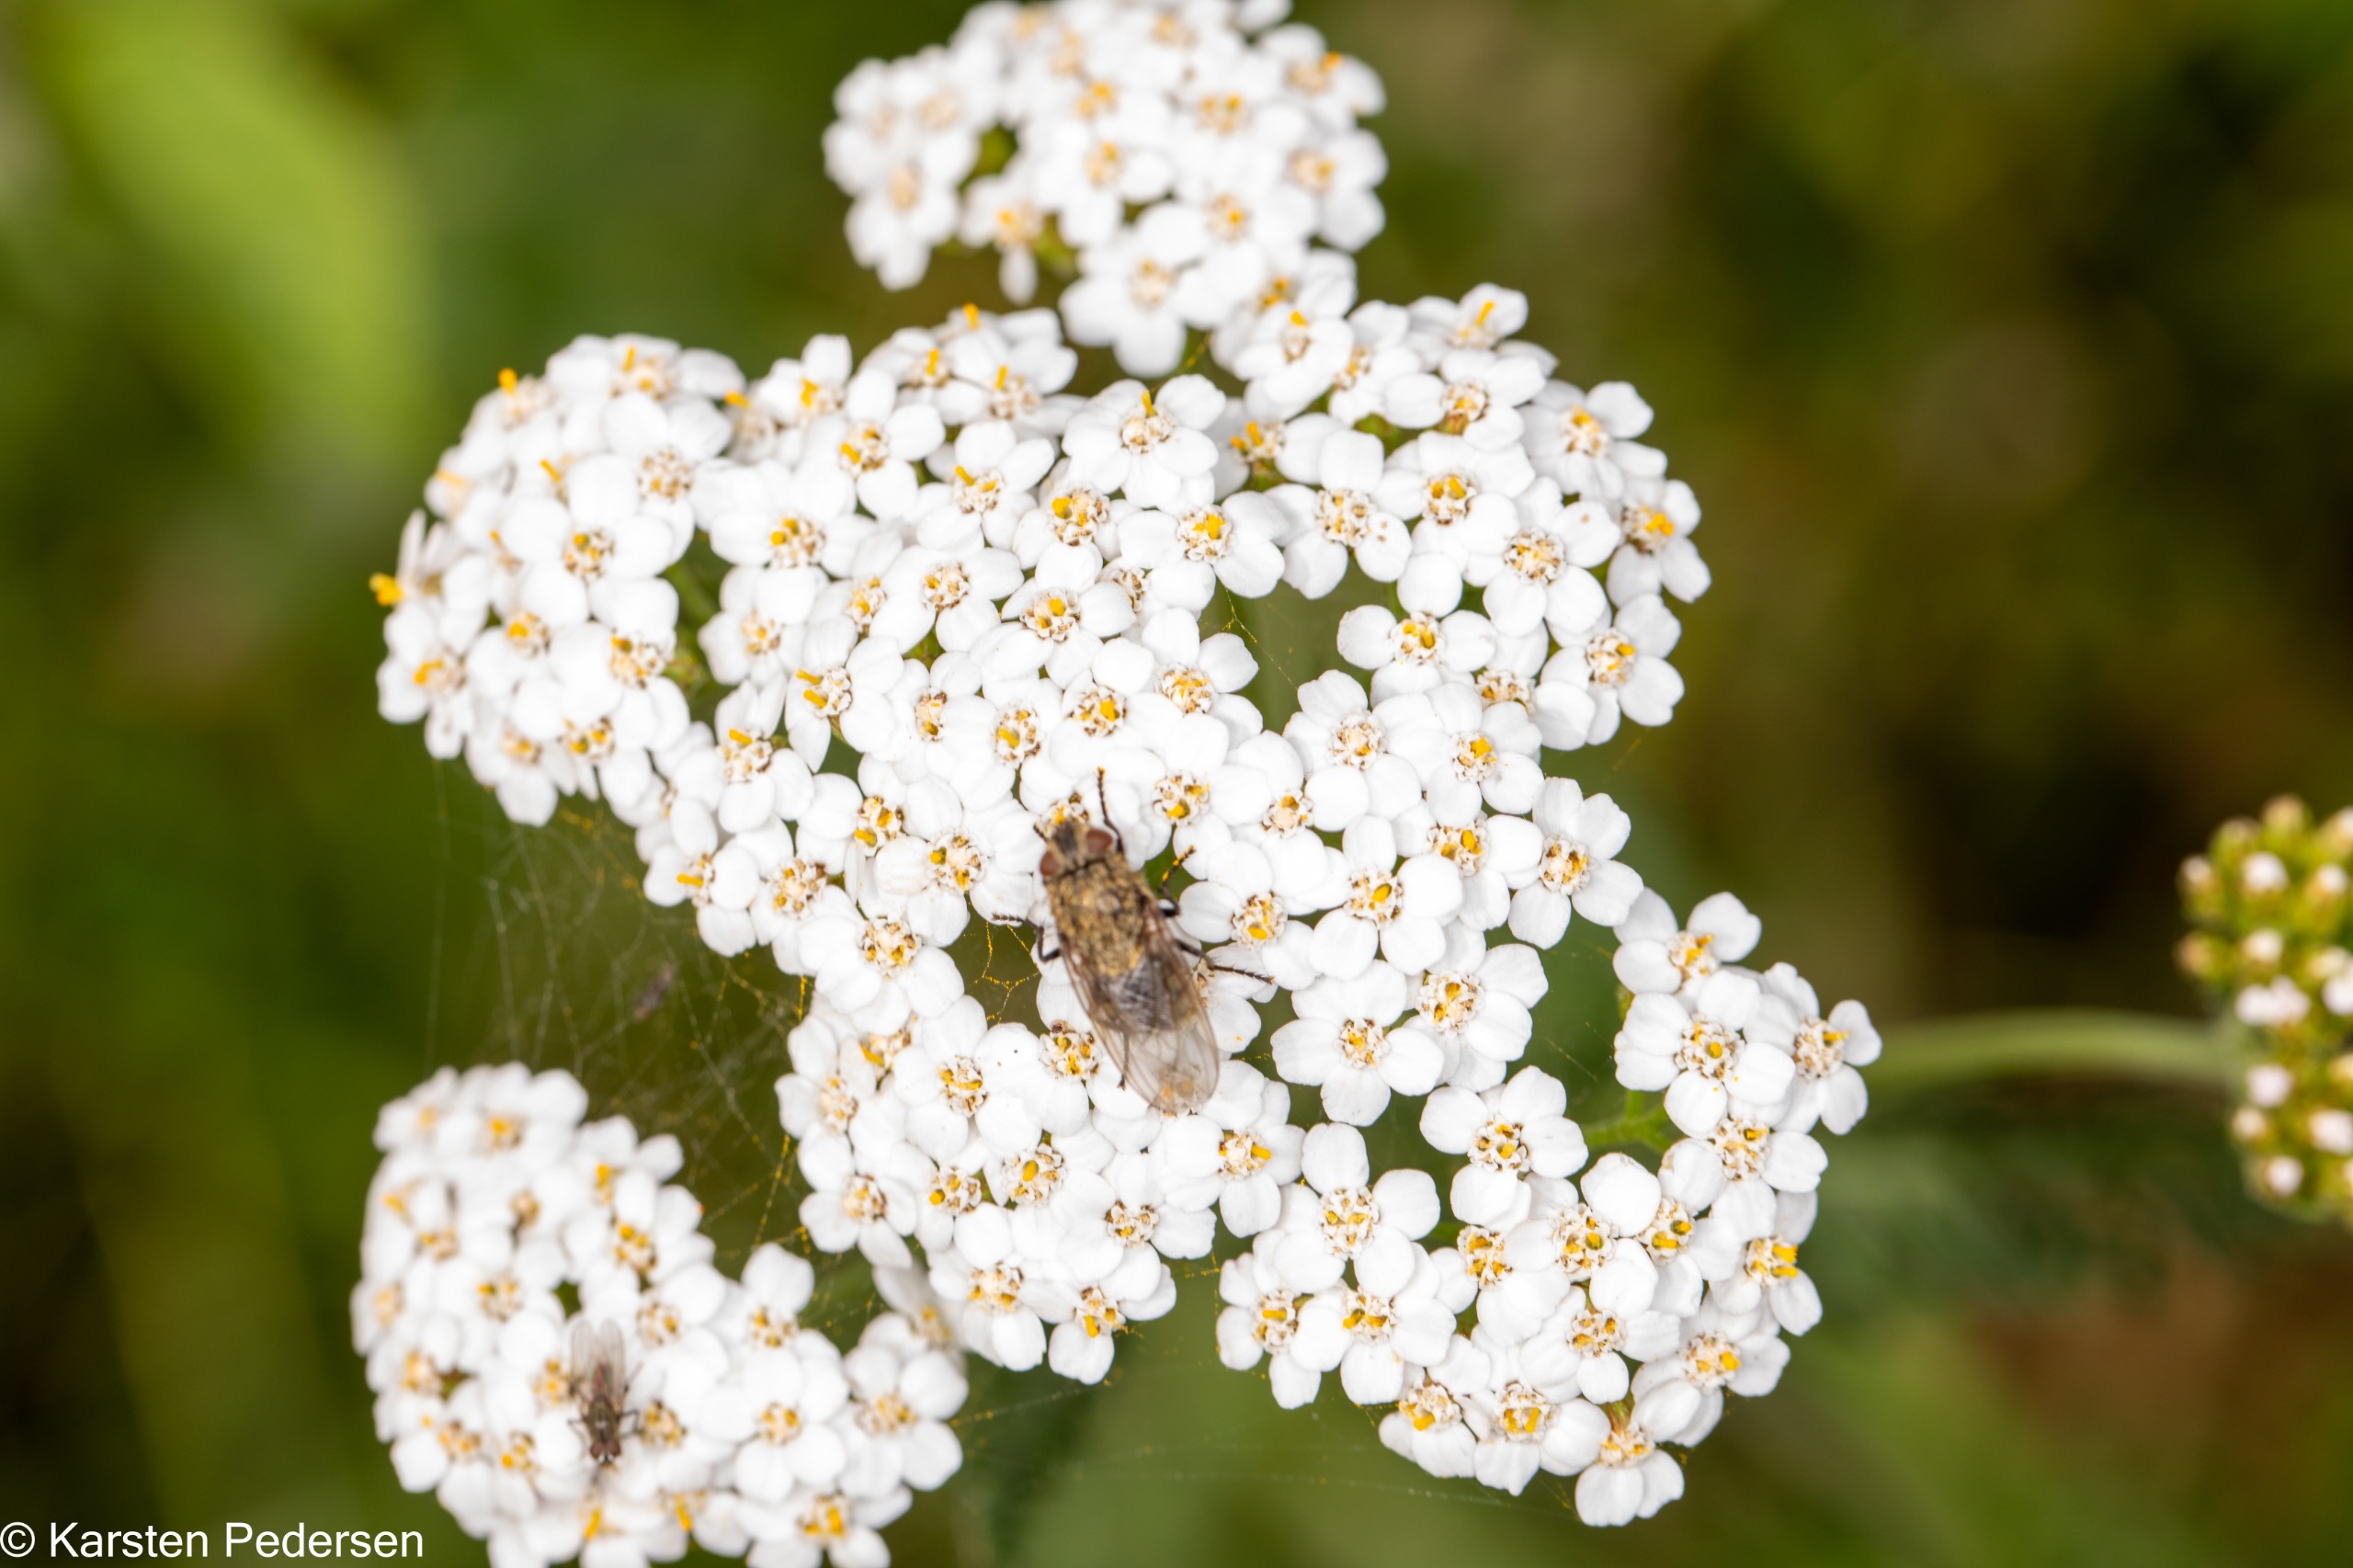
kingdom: Animalia
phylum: Arthropoda
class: Insecta
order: Diptera
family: Polleniidae
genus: Pollenia
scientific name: Pollenia
